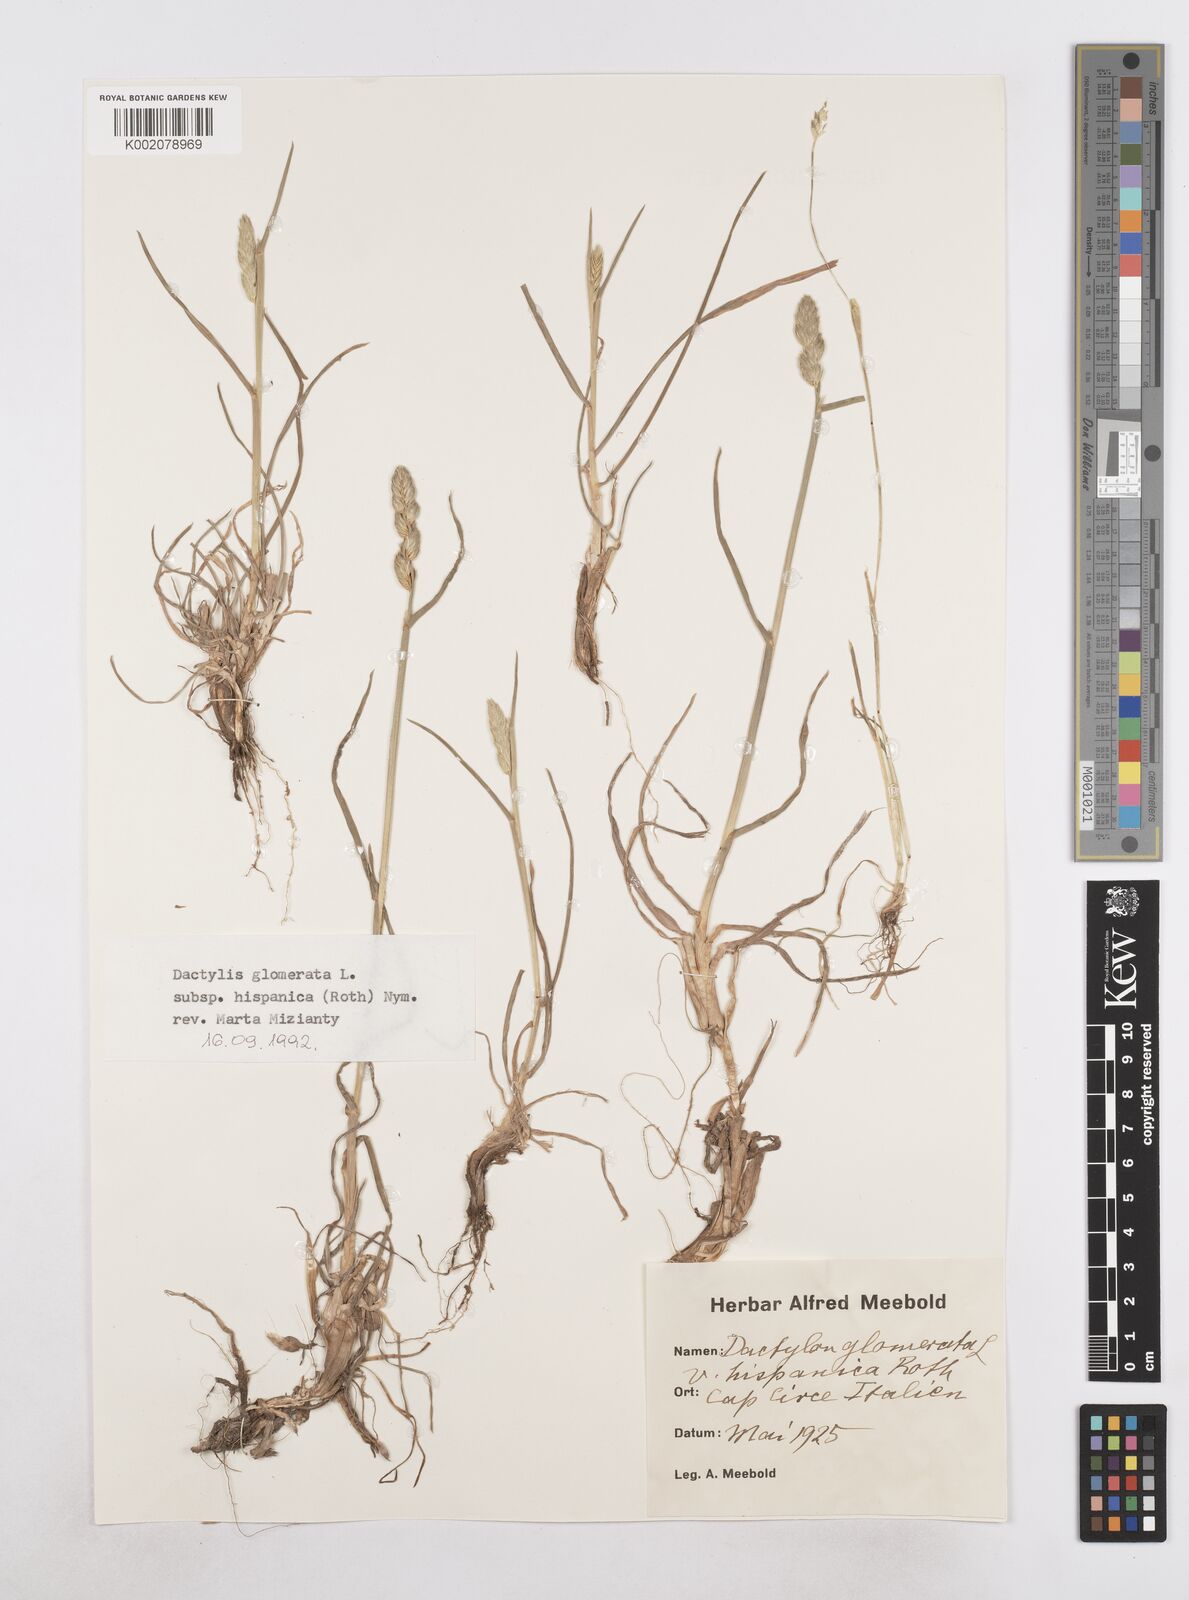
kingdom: Plantae
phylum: Tracheophyta
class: Liliopsida
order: Poales
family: Poaceae
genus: Dactylis
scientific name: Dactylis glomerata
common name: Orchardgrass
